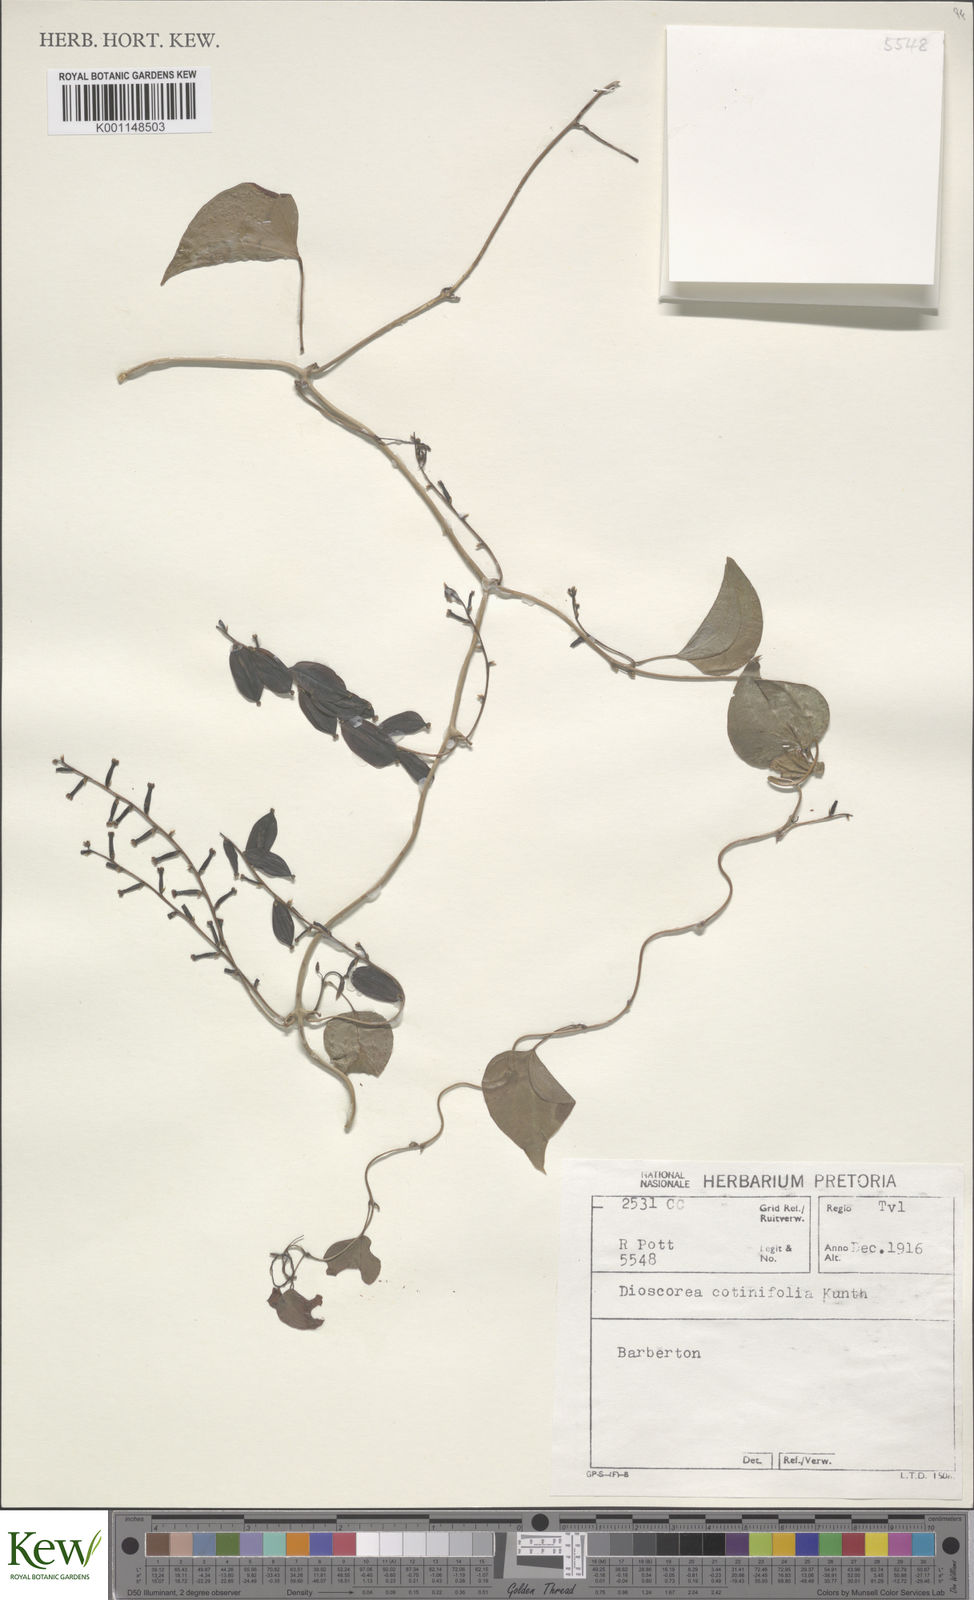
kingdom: Plantae
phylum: Tracheophyta
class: Liliopsida
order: Dioscoreales
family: Dioscoreaceae
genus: Dioscorea
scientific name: Dioscorea cotinifolia
